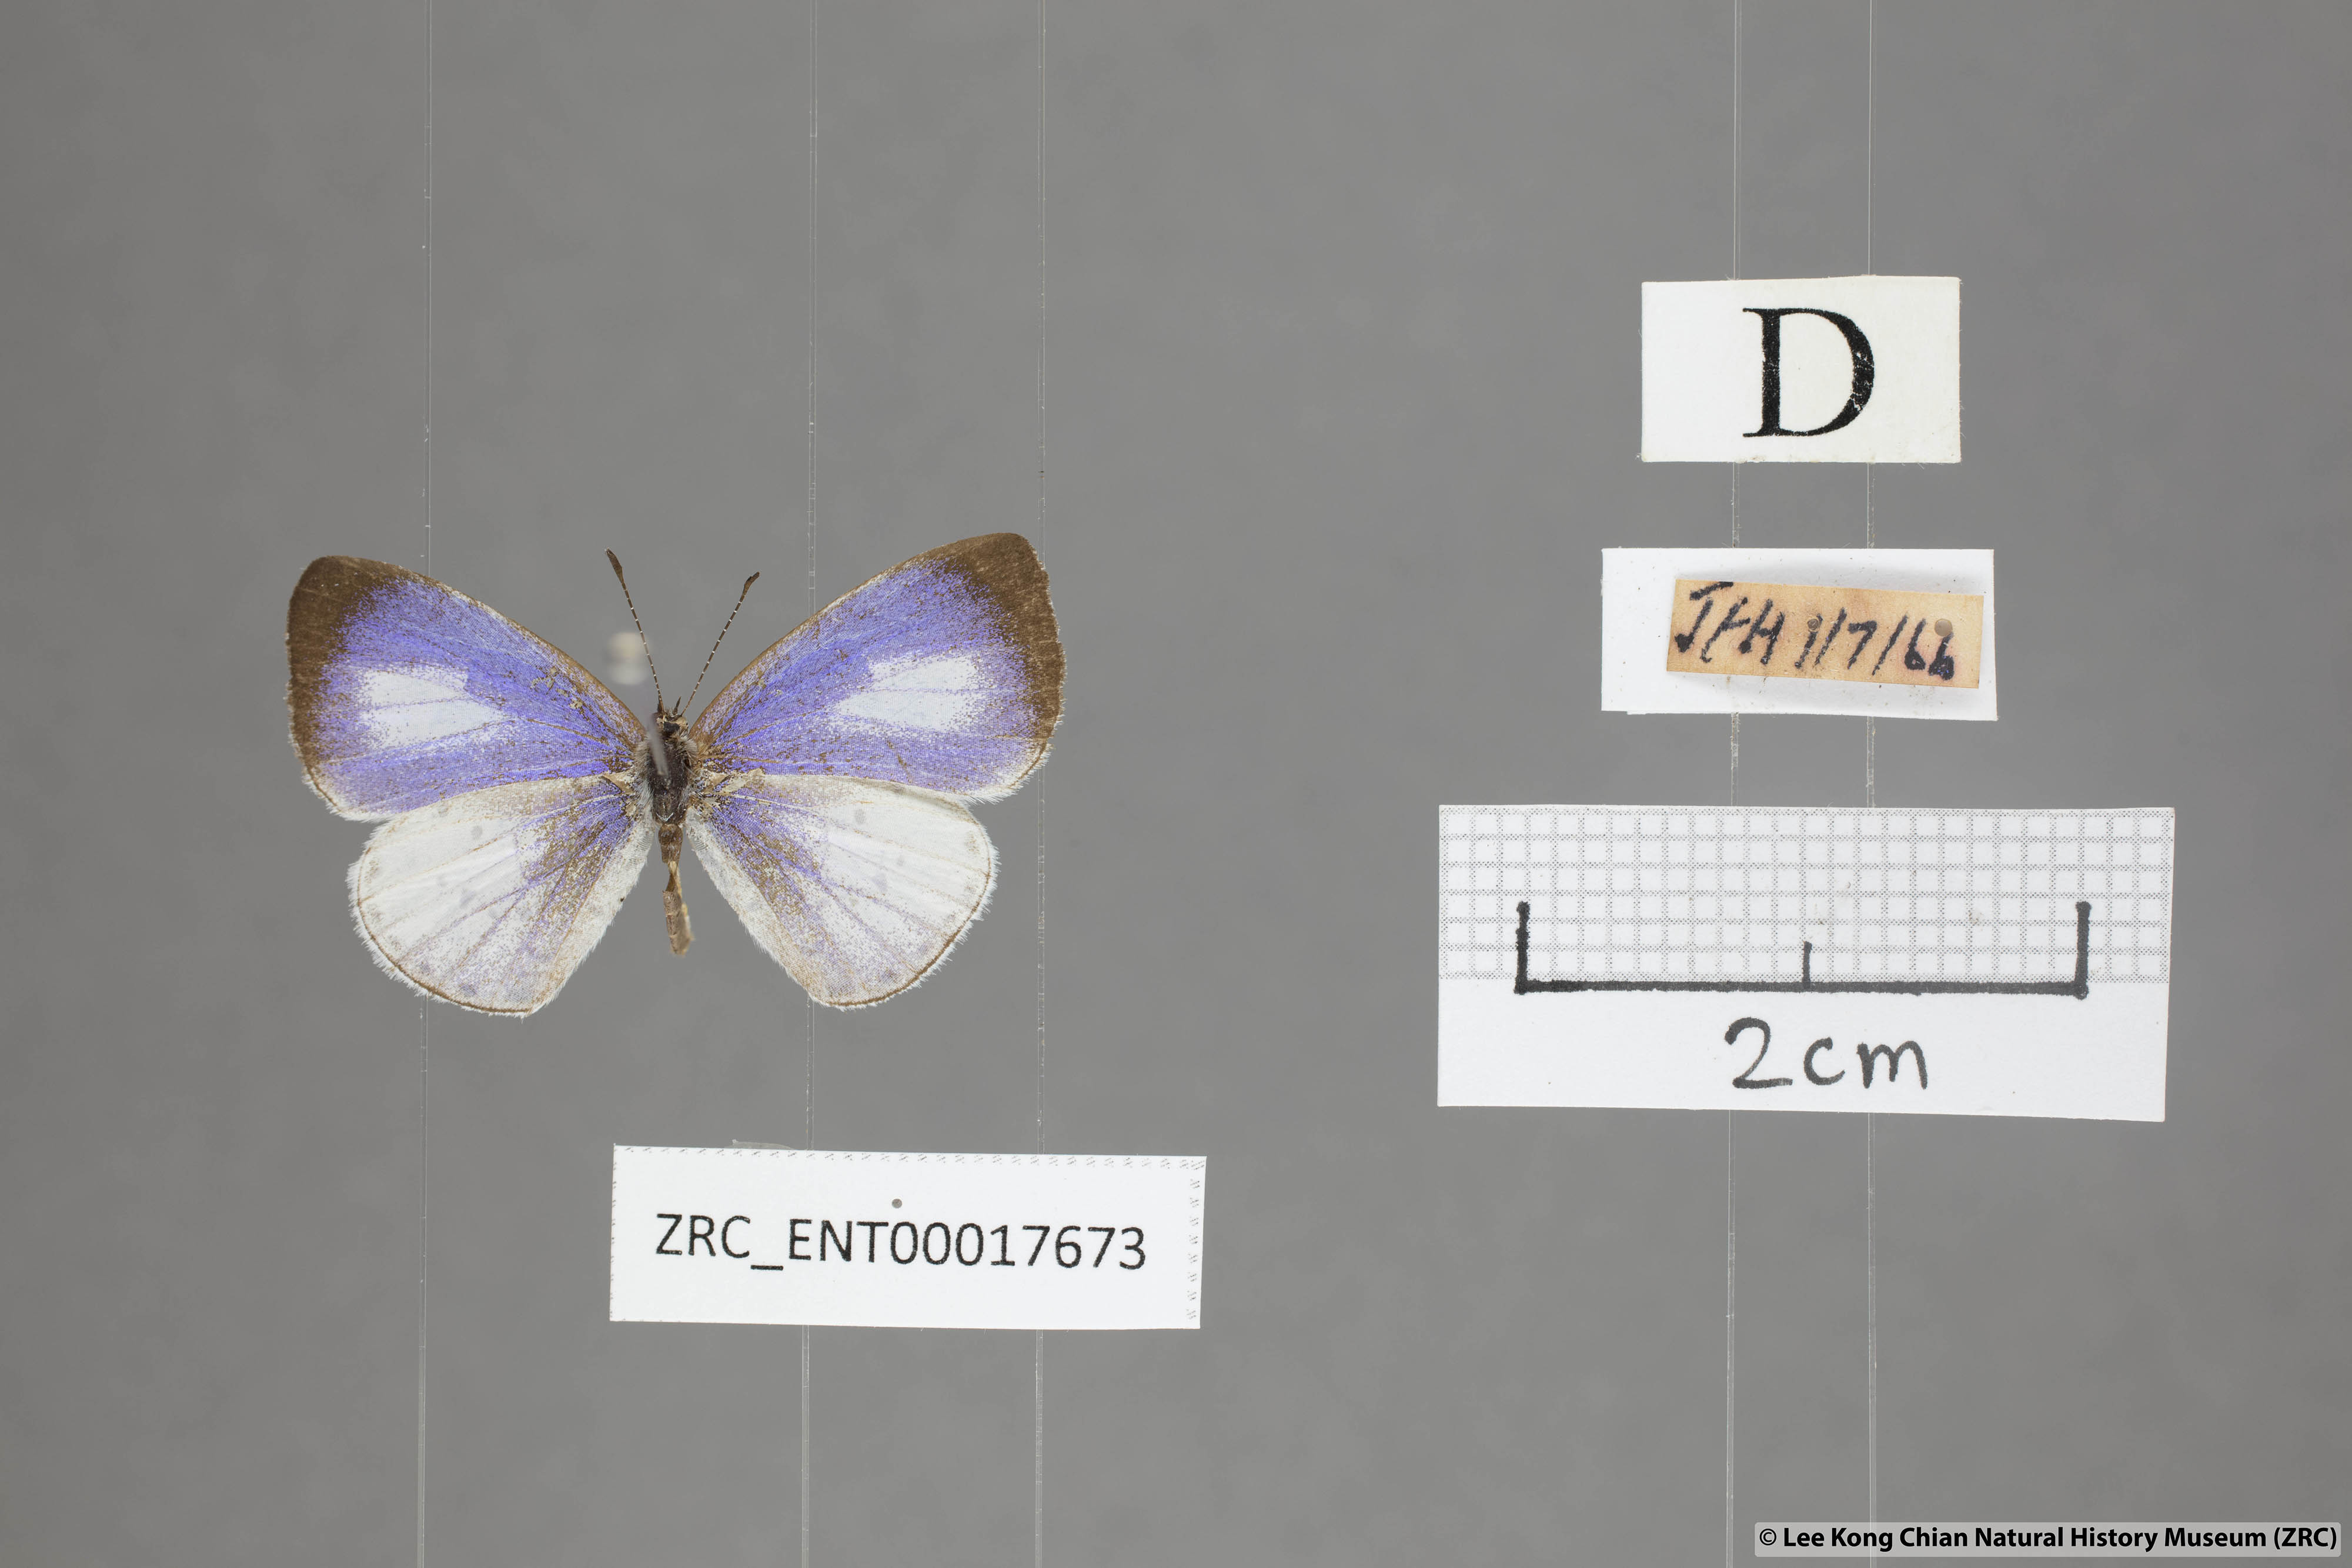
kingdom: Animalia
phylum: Arthropoda
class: Insecta
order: Lepidoptera
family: Lycaenidae
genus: Udara
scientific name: Udara albocaerulea
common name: Albocerulean
